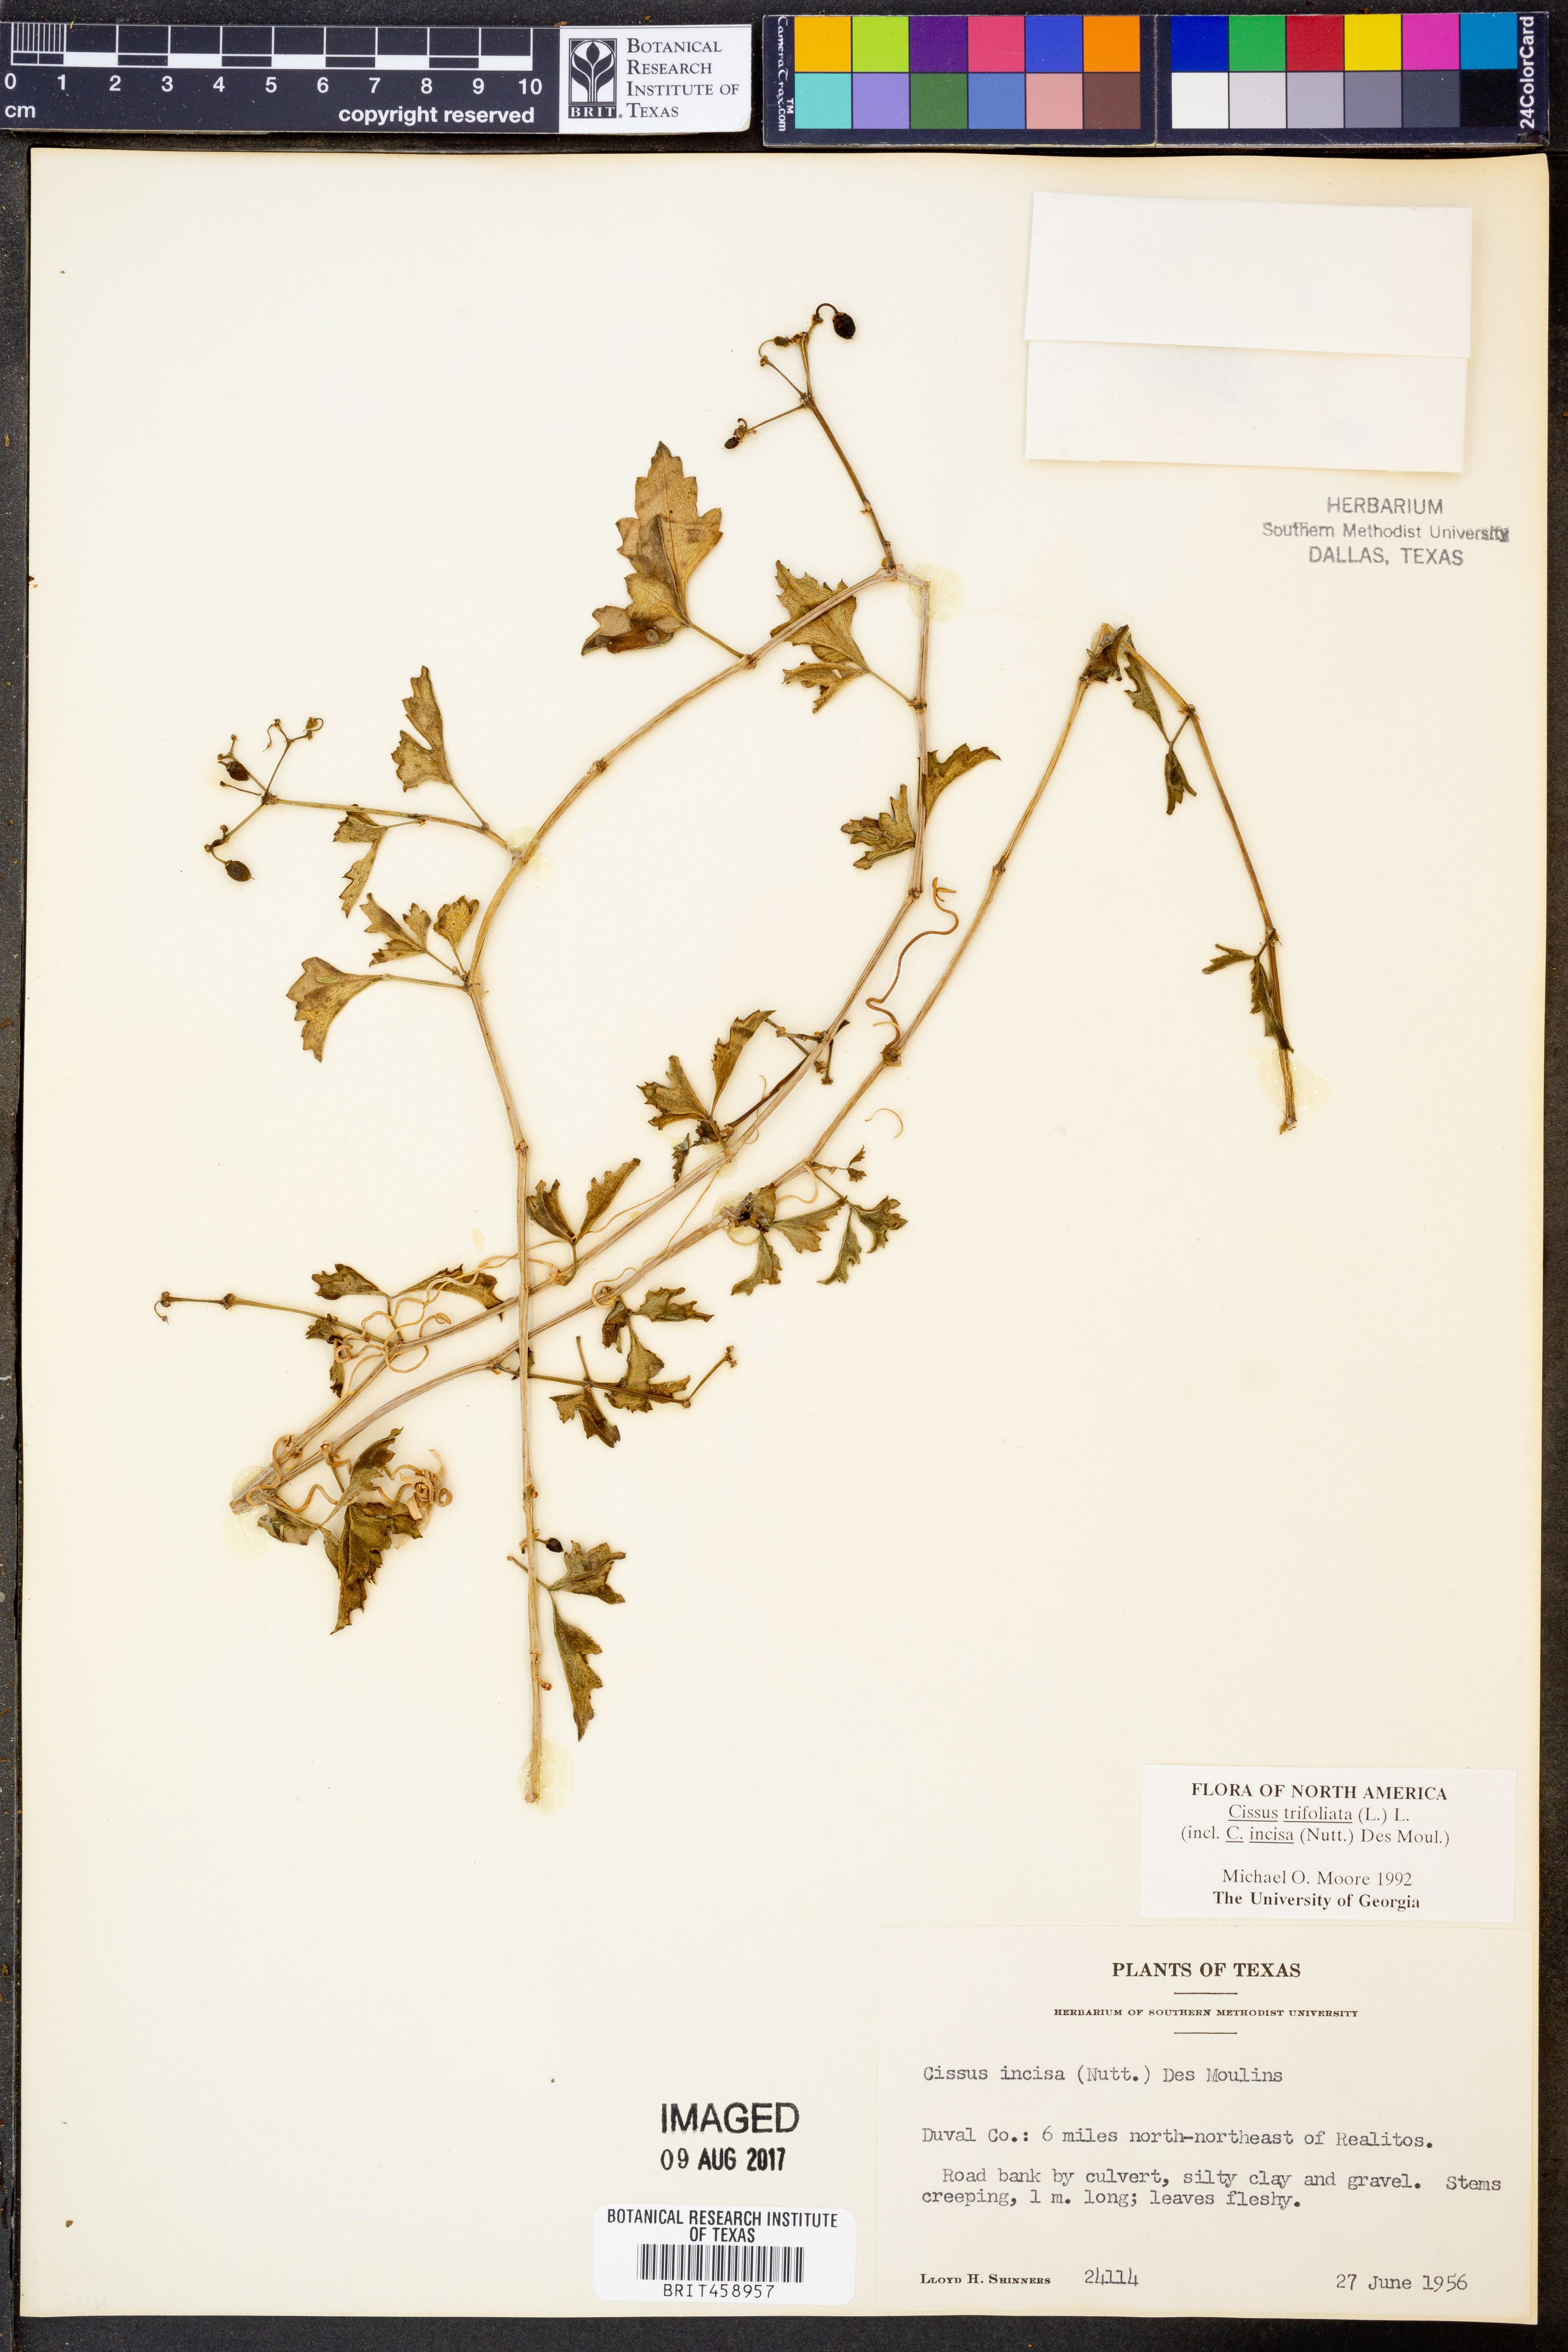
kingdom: Plantae
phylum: Tracheophyta
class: Magnoliopsida
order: Vitales
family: Vitaceae
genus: Cissus
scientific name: Cissus trifoliata
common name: Vine-sorrel
